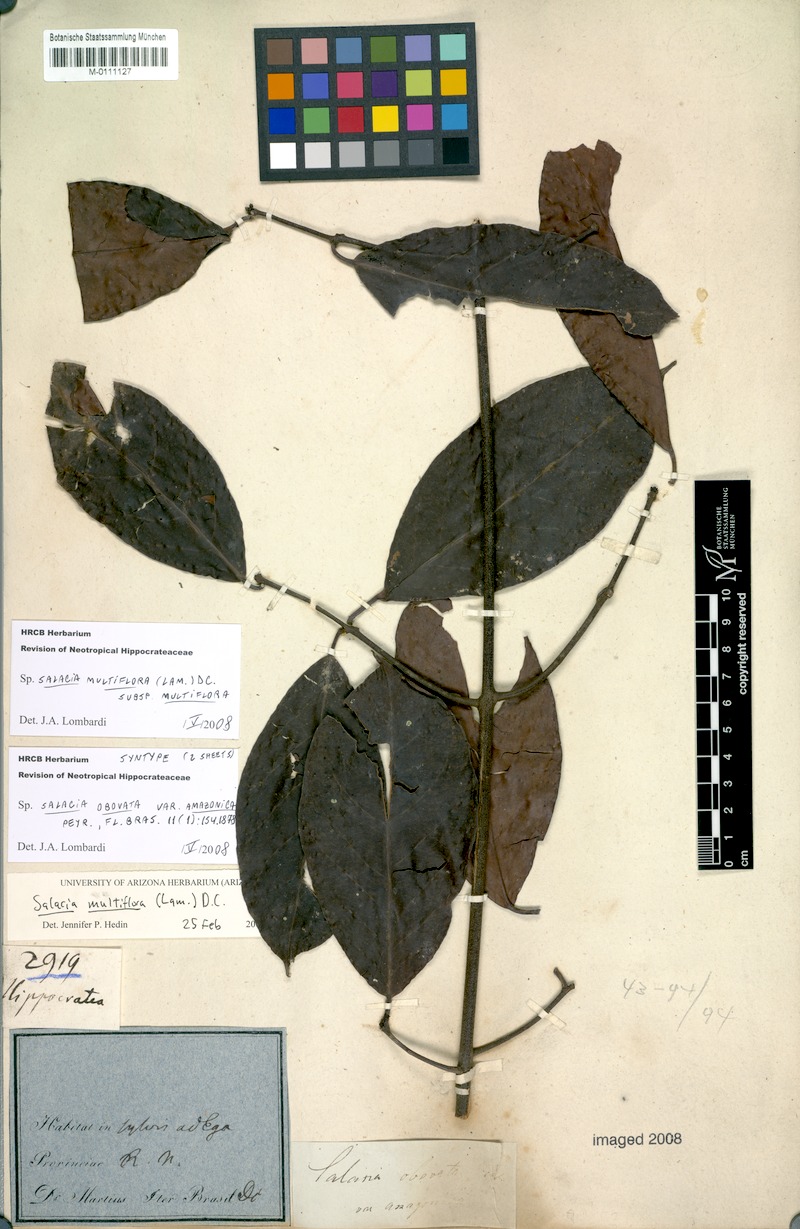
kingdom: Plantae
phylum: Tracheophyta
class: Magnoliopsida
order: Celastrales
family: Celastraceae
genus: Salacia
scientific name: Salacia multiflora
